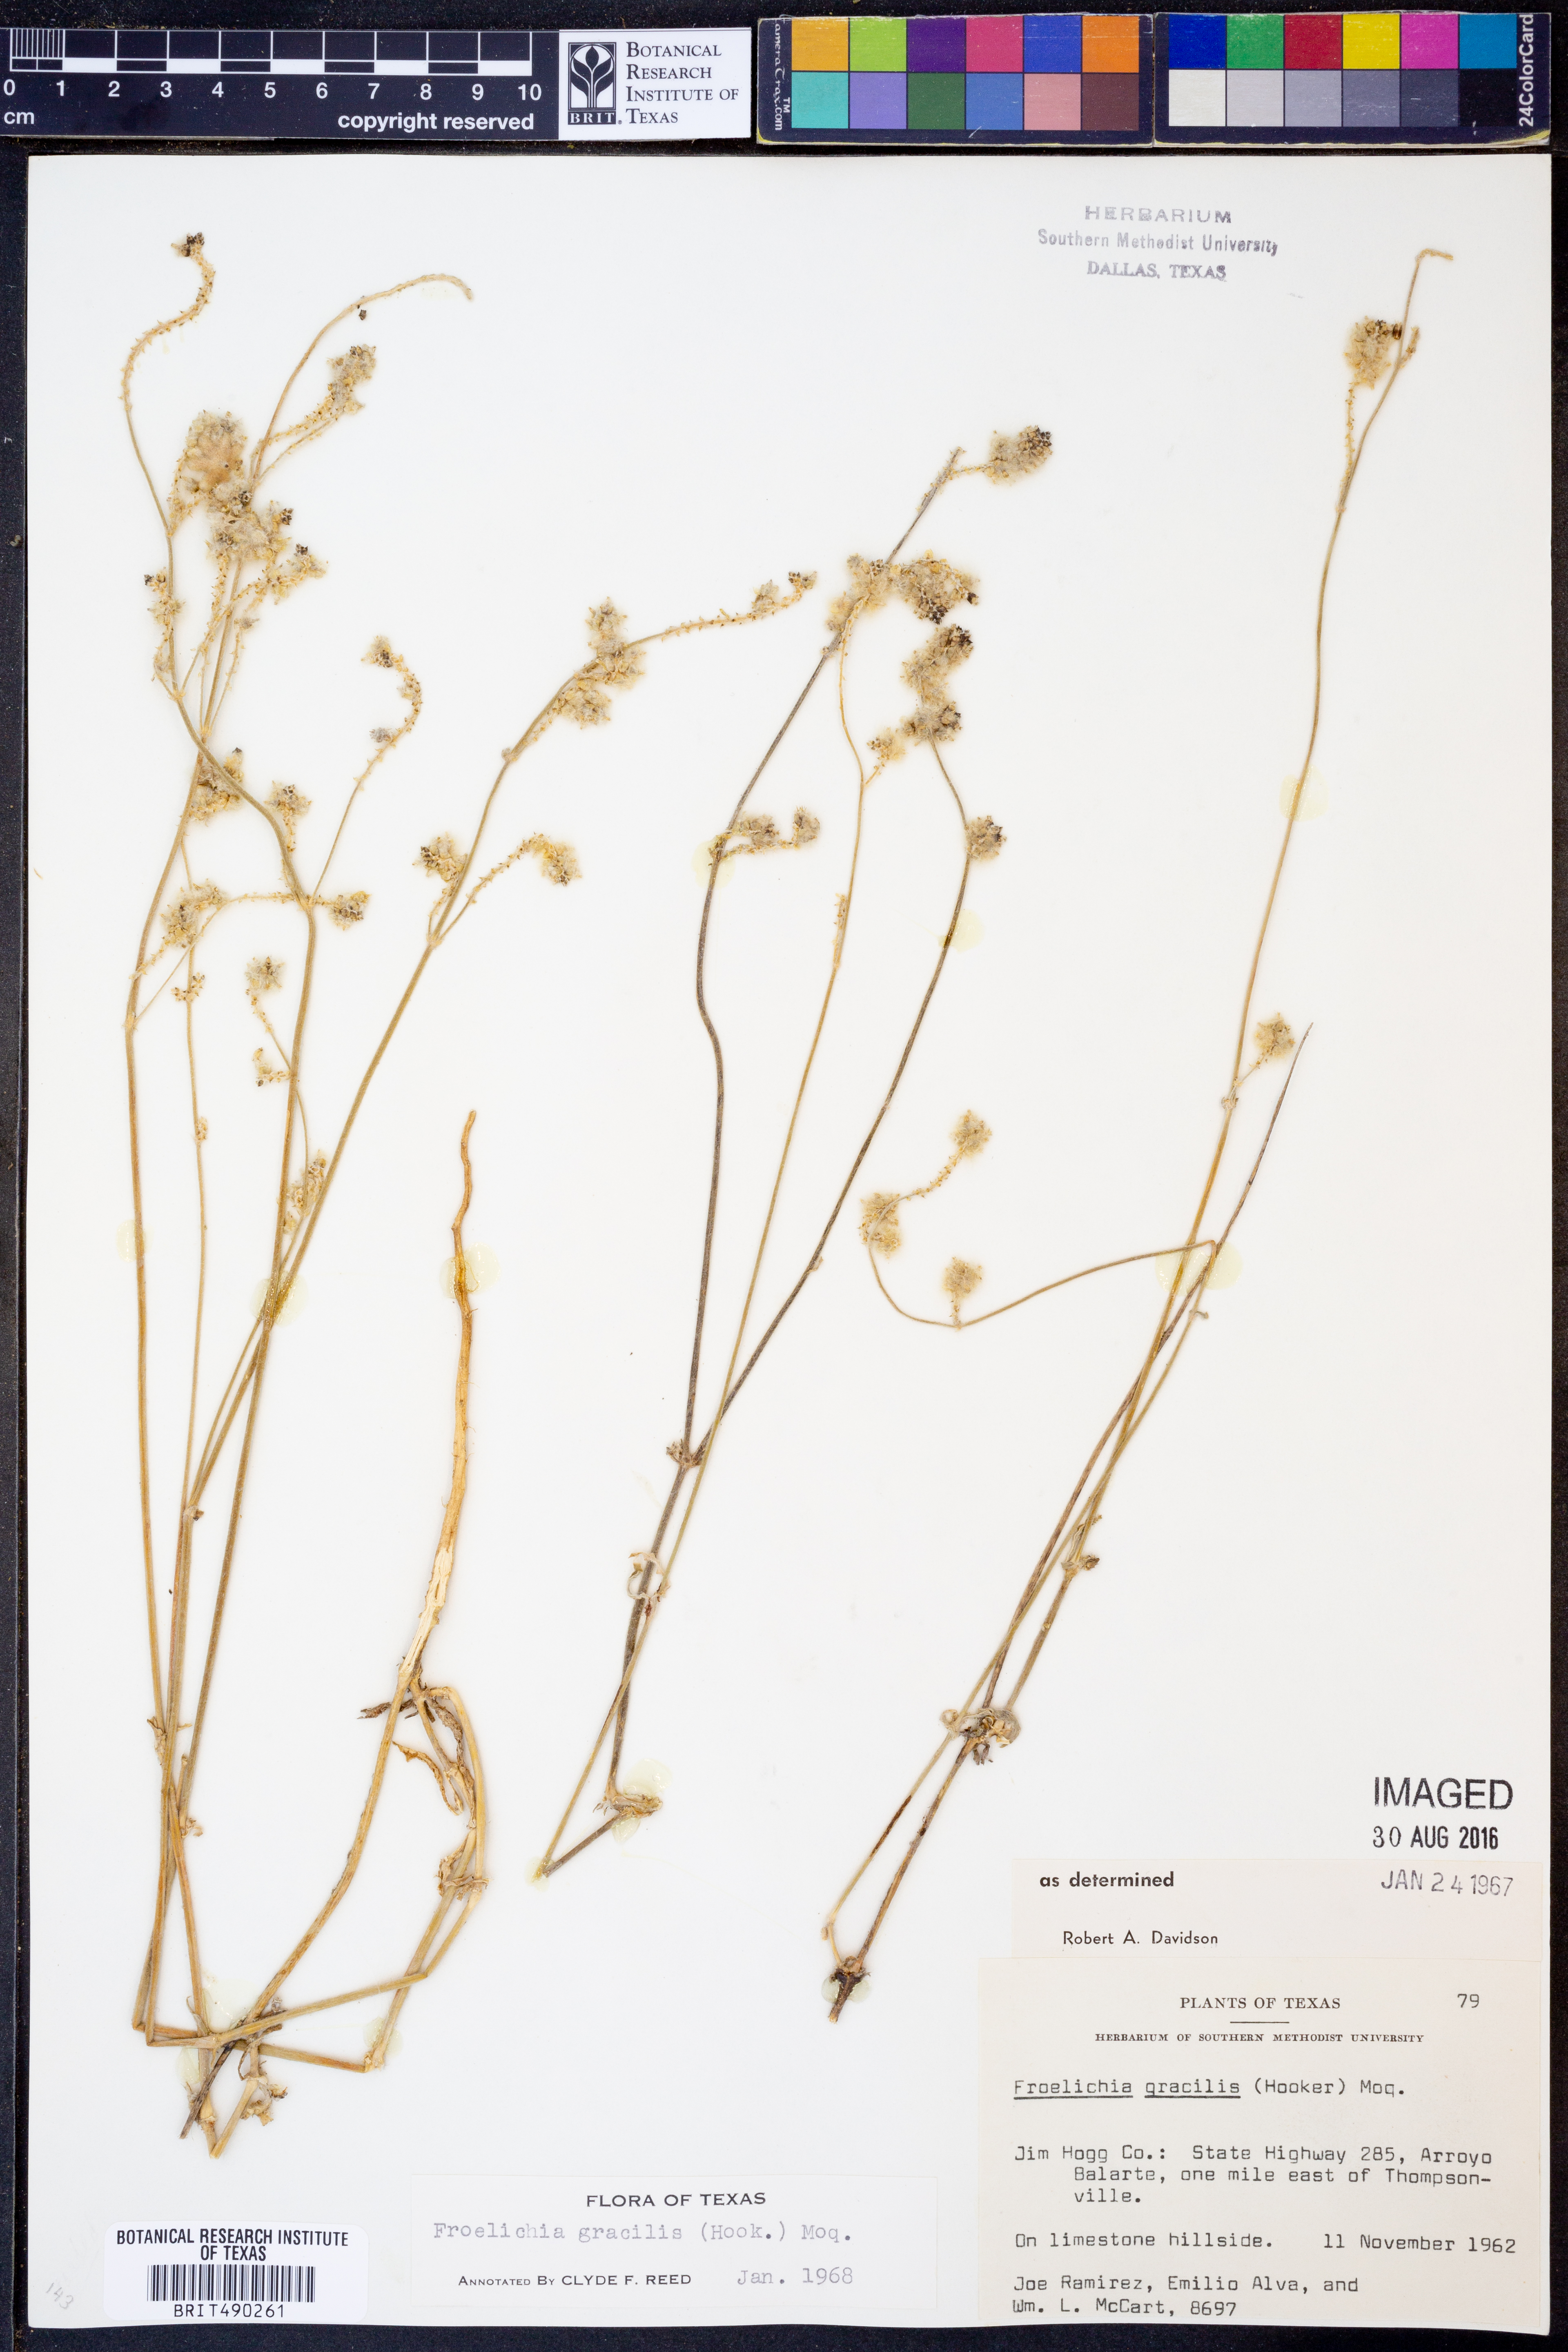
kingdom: Plantae
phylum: Tracheophyta
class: Magnoliopsida
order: Caryophyllales
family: Amaranthaceae
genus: Froelichia
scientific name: Froelichia gracilis
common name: Slender cottonweed
